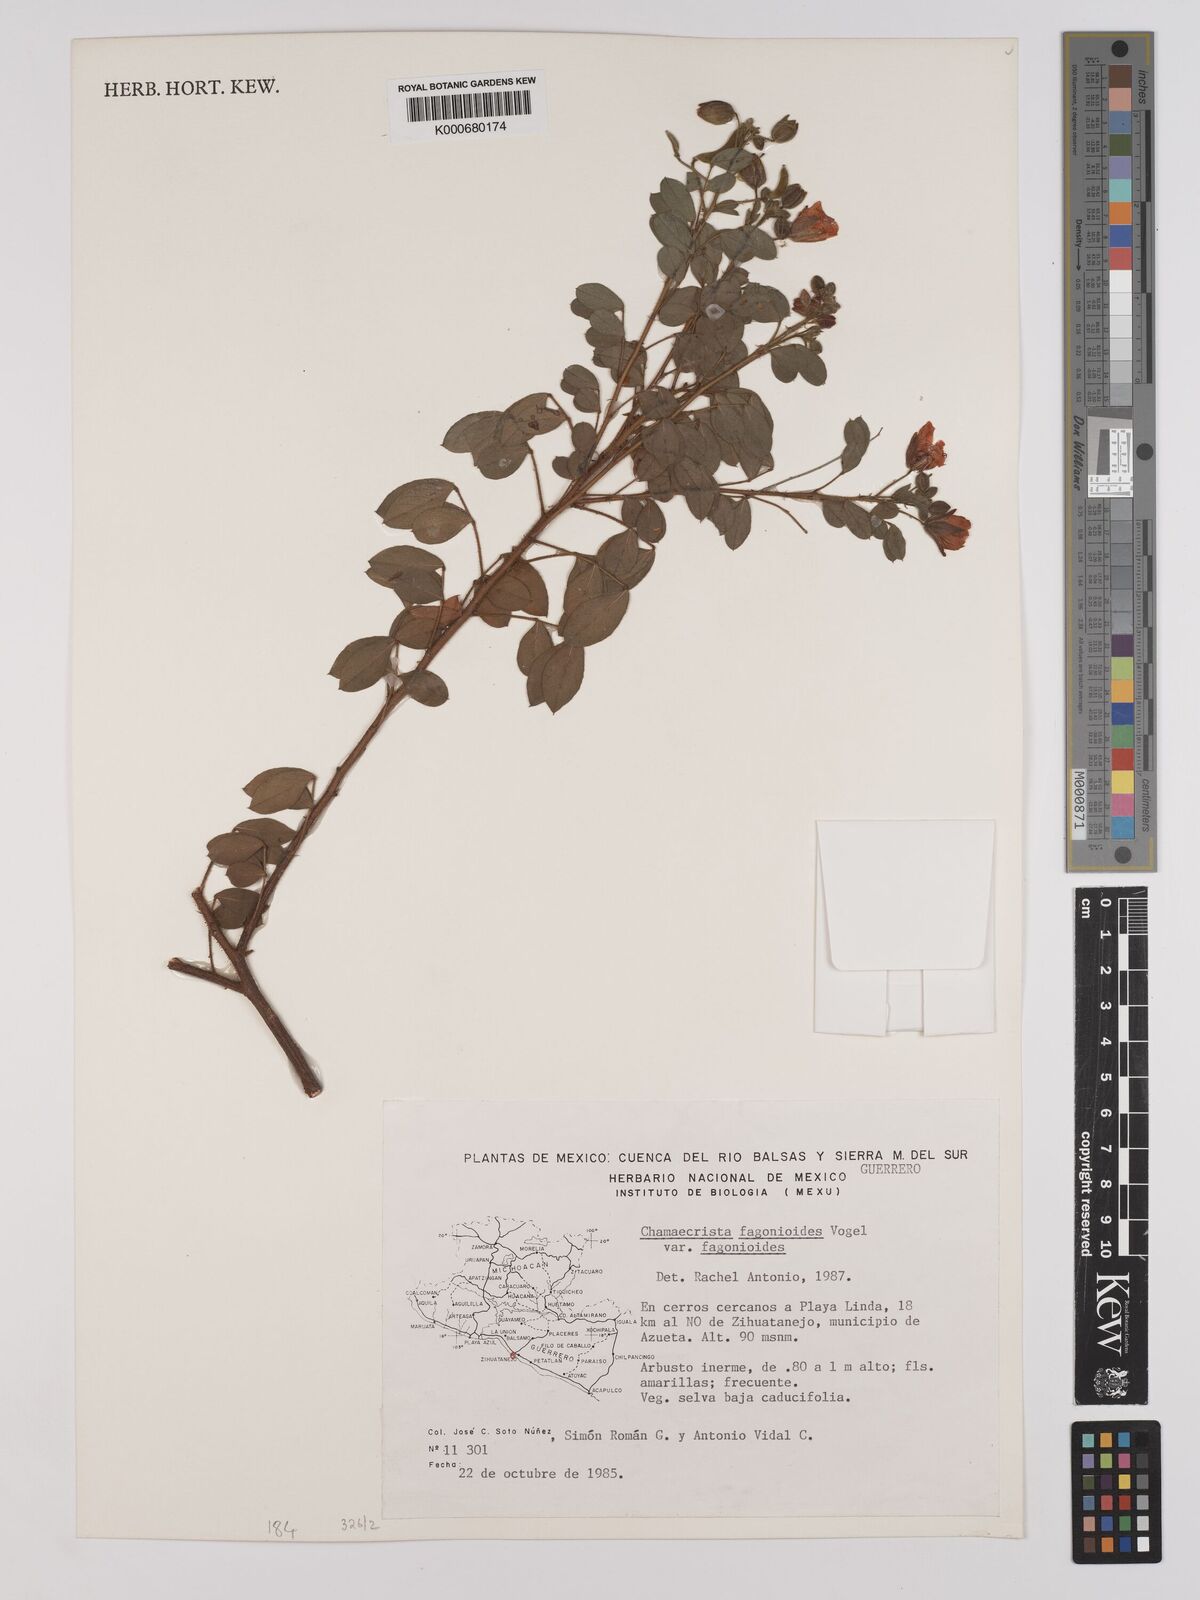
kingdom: Plantae
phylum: Tracheophyta
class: Magnoliopsida
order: Fabales
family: Fabaceae
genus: Chamaecrista
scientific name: Chamaecrista fagonioides
